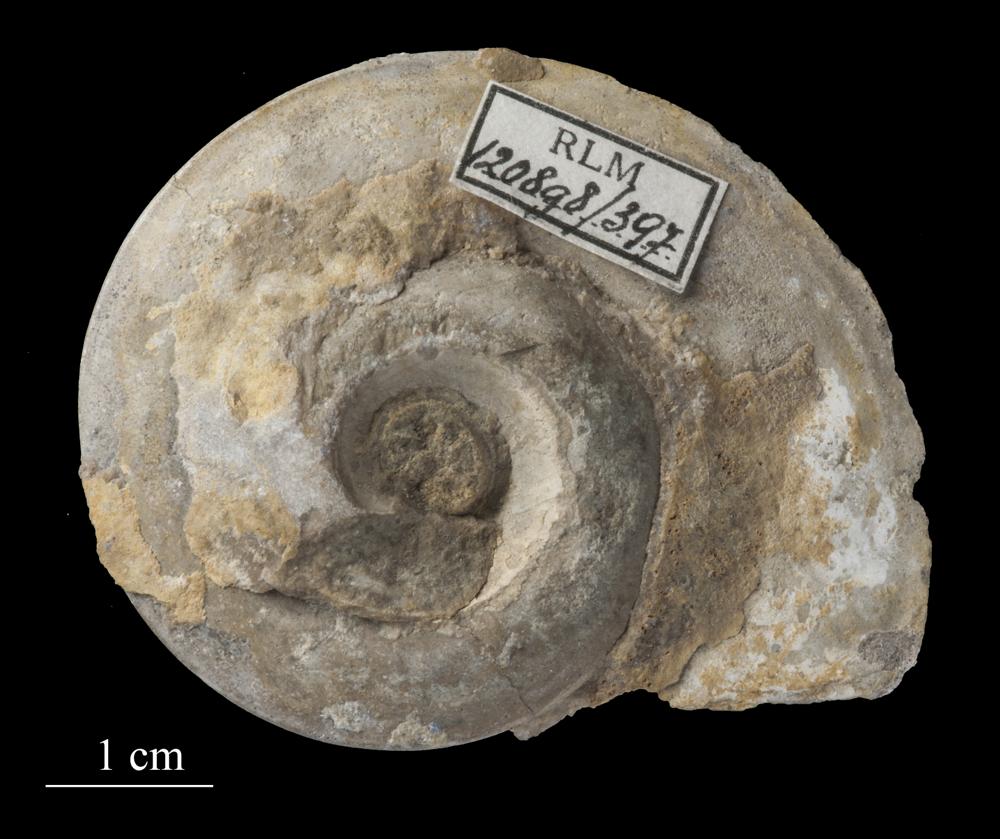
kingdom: Animalia
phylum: Mollusca
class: Gastropoda
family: Lesueurillidae
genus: Pararaphistoma
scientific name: Pararaphistoma Helicites qualteriata
